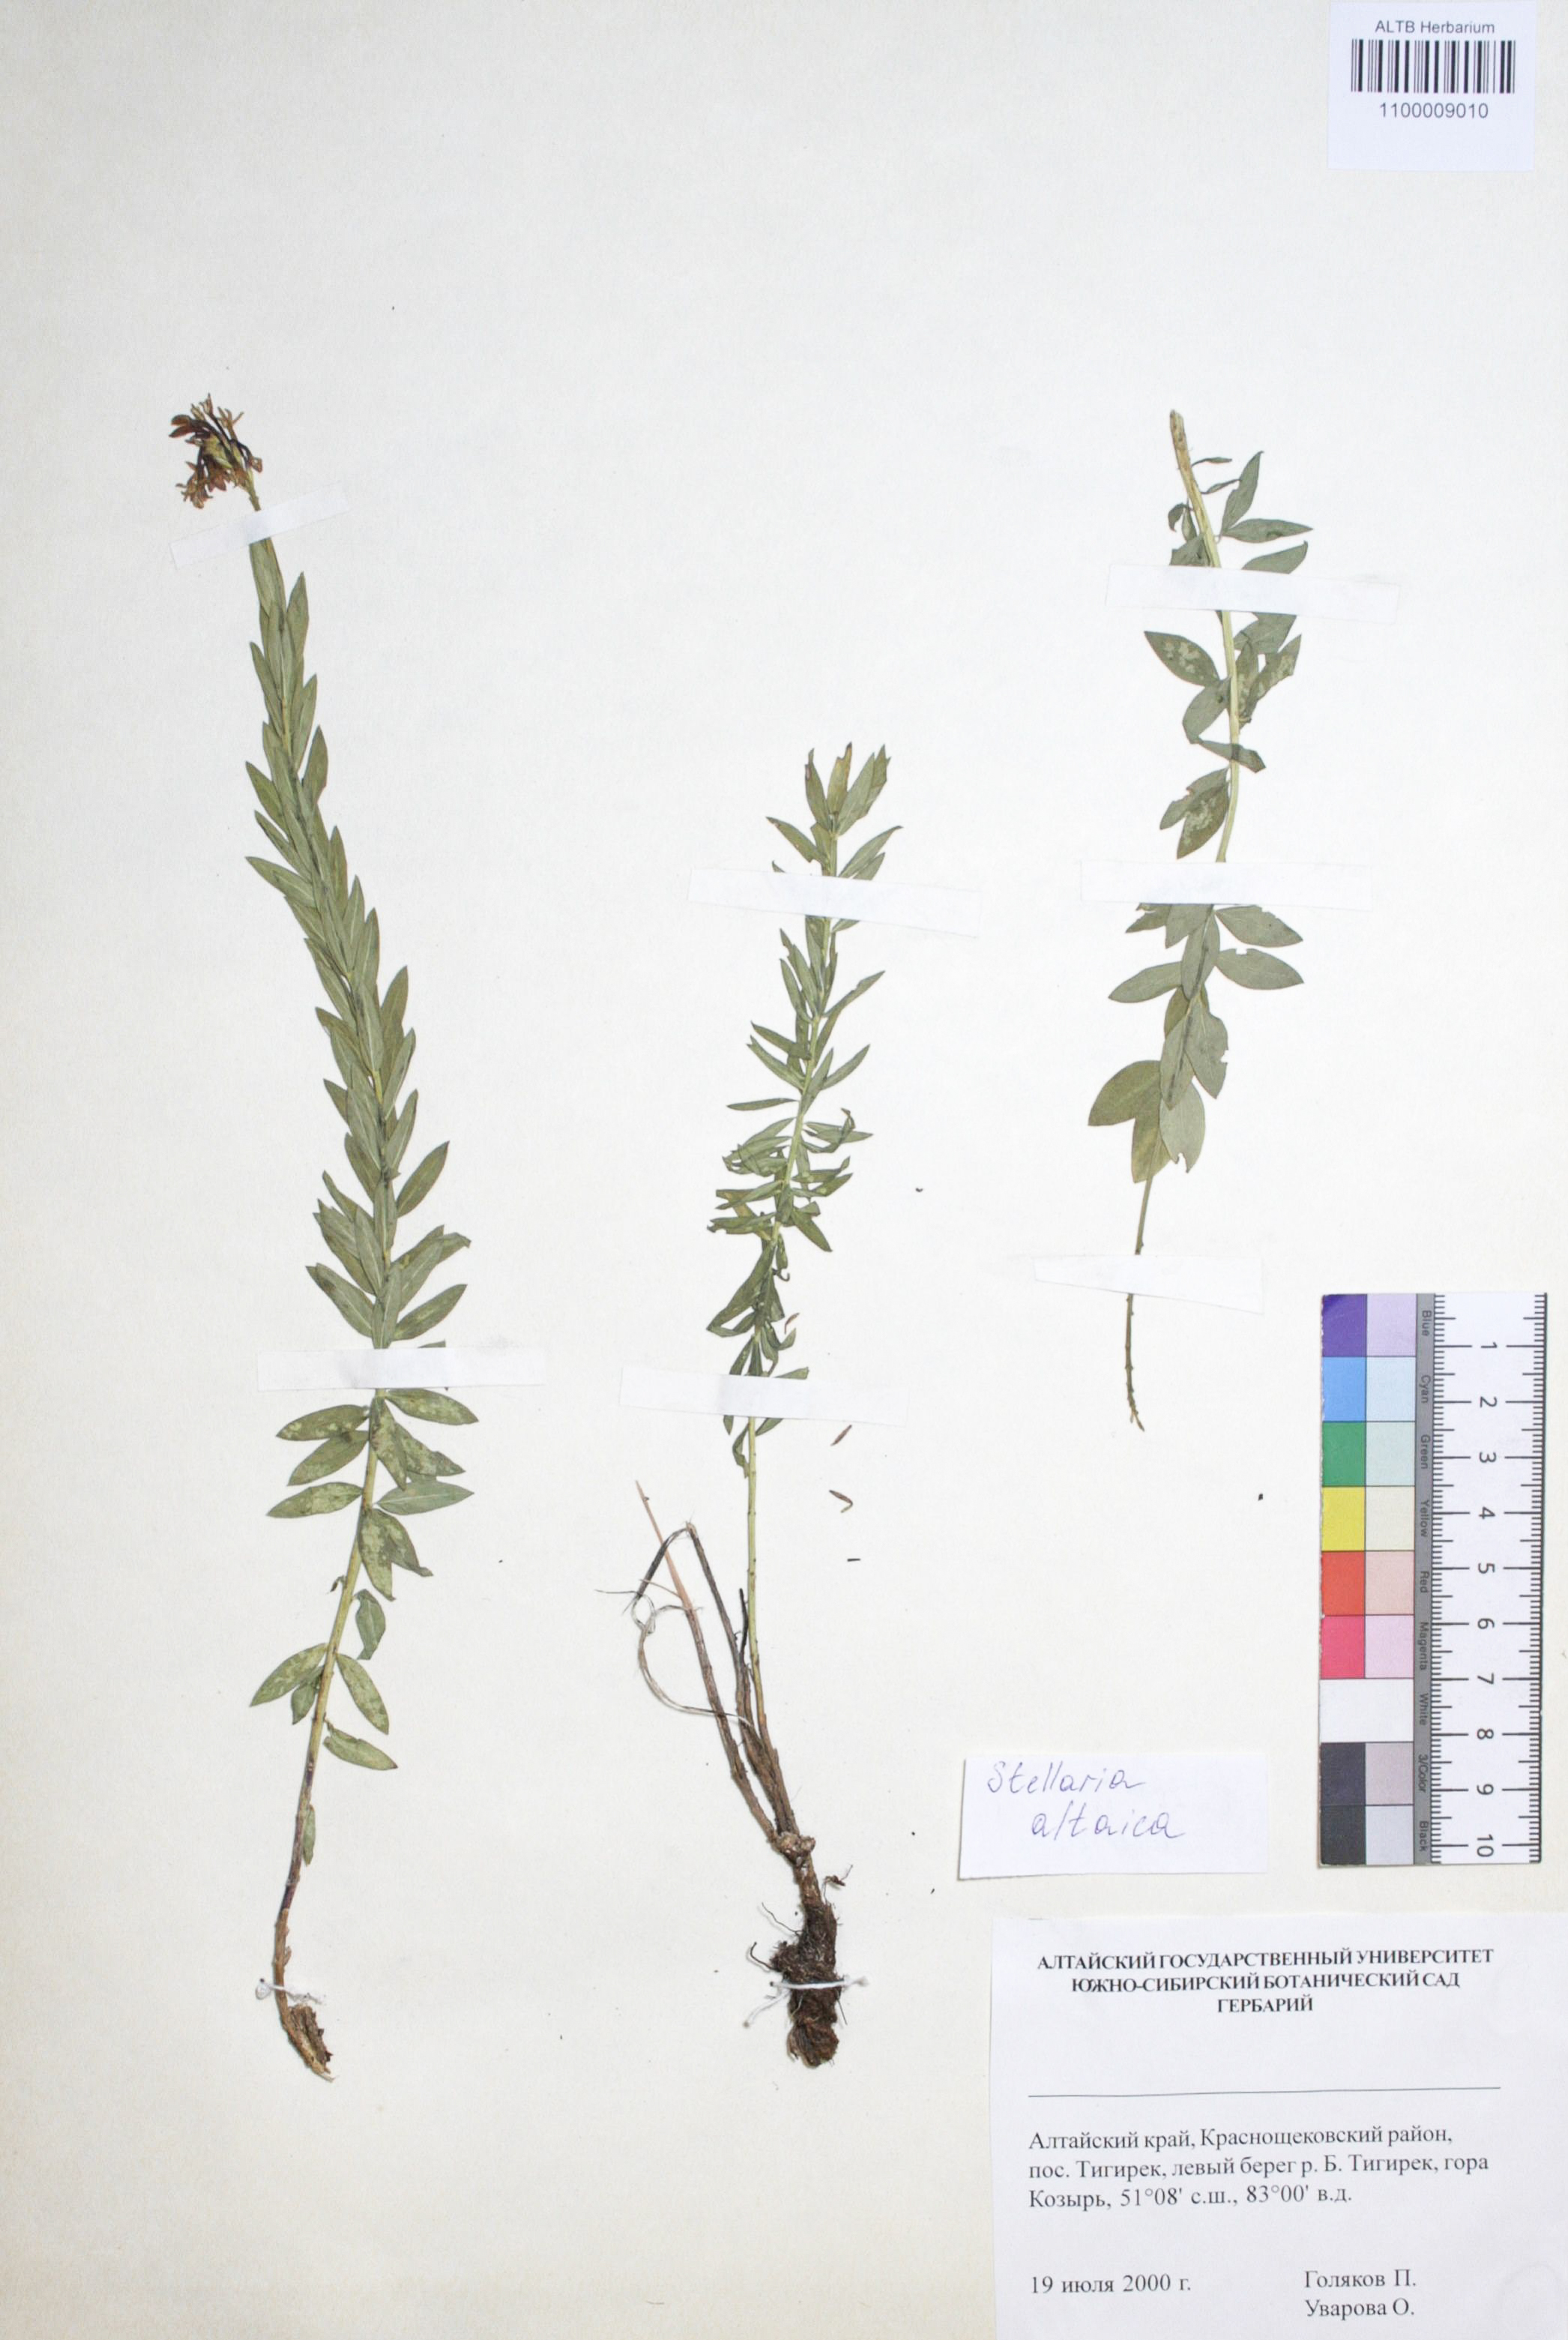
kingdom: Plantae
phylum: Tracheophyta
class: Magnoliopsida
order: Malvales
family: Thymelaeaceae
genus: Diarthron
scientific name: Diarthron altaicum
